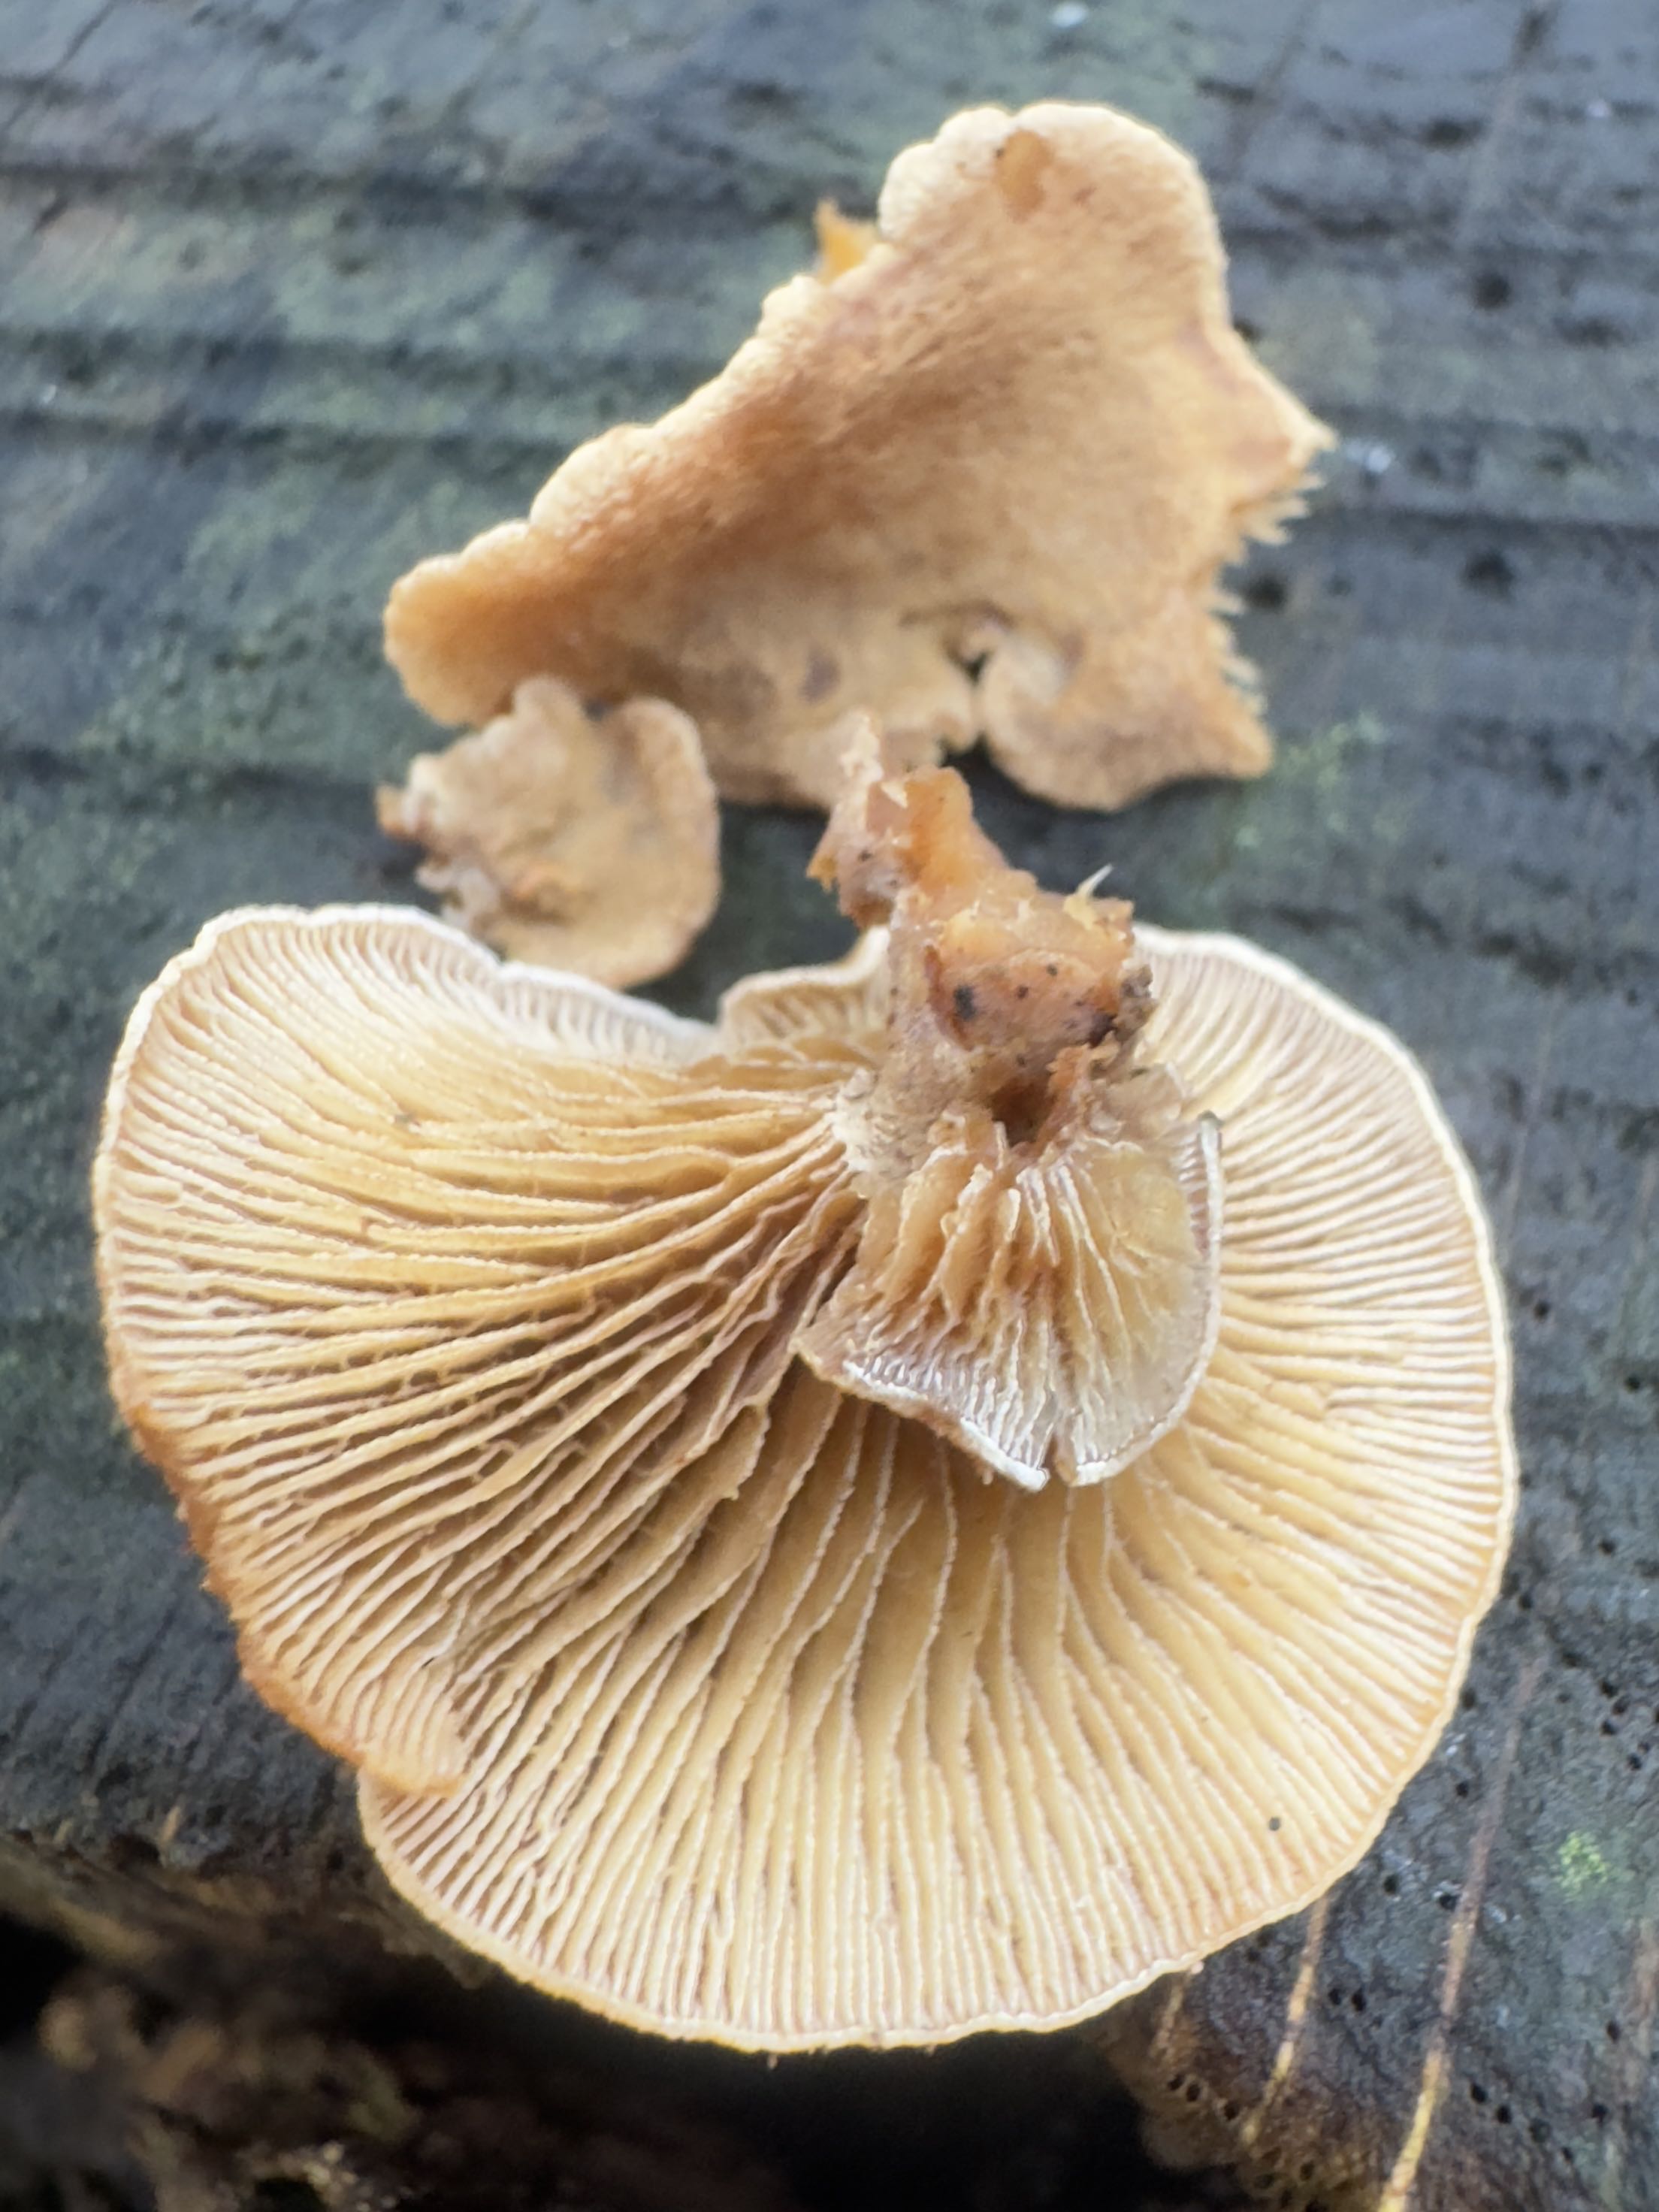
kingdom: Fungi
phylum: Basidiomycota
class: Agaricomycetes
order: Agaricales
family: Mycenaceae
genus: Panellus
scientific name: Panellus stipticus
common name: kliddet epaulethat
